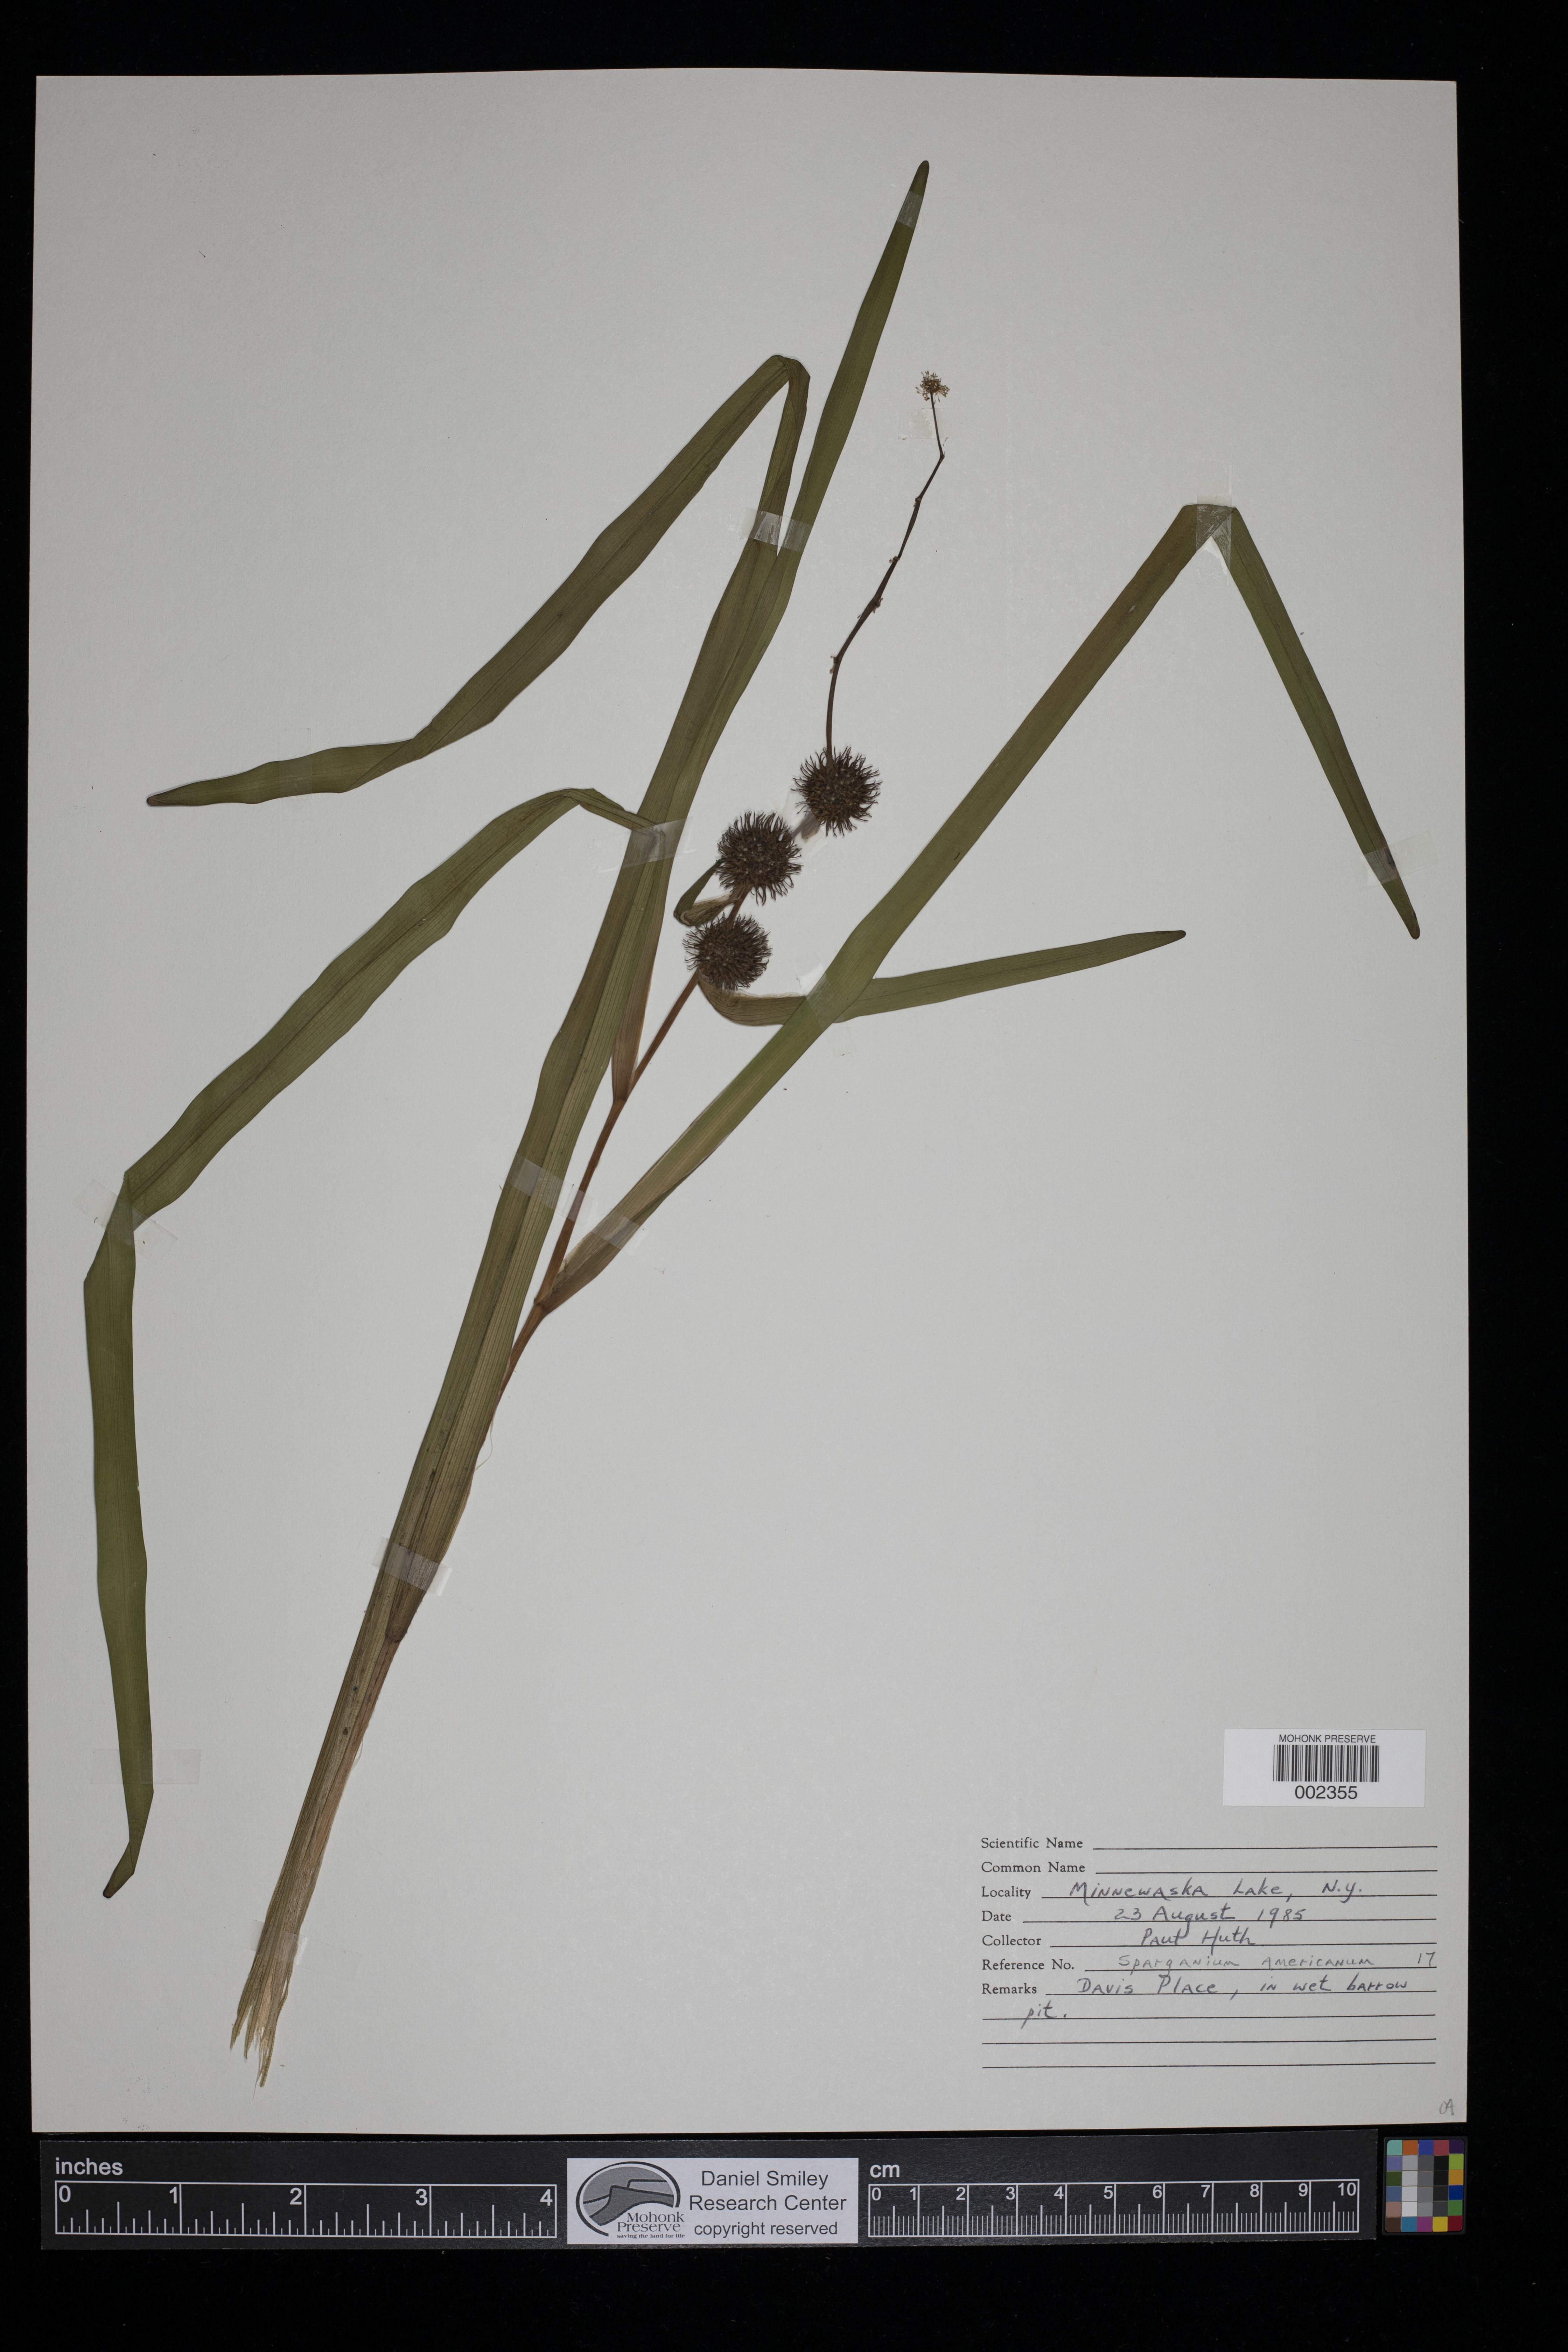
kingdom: Plantae
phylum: Tracheophyta
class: Liliopsida
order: Poales
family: Typhaceae
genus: Sparganium
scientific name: Sparganium americanum
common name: American burreed
